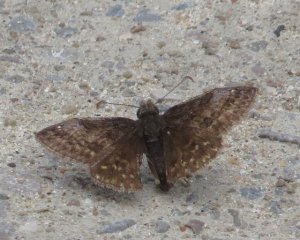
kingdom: Animalia
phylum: Arthropoda
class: Insecta
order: Lepidoptera
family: Hesperiidae
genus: Erynnis
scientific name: Erynnis icelus
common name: Dreamy Duskywing
